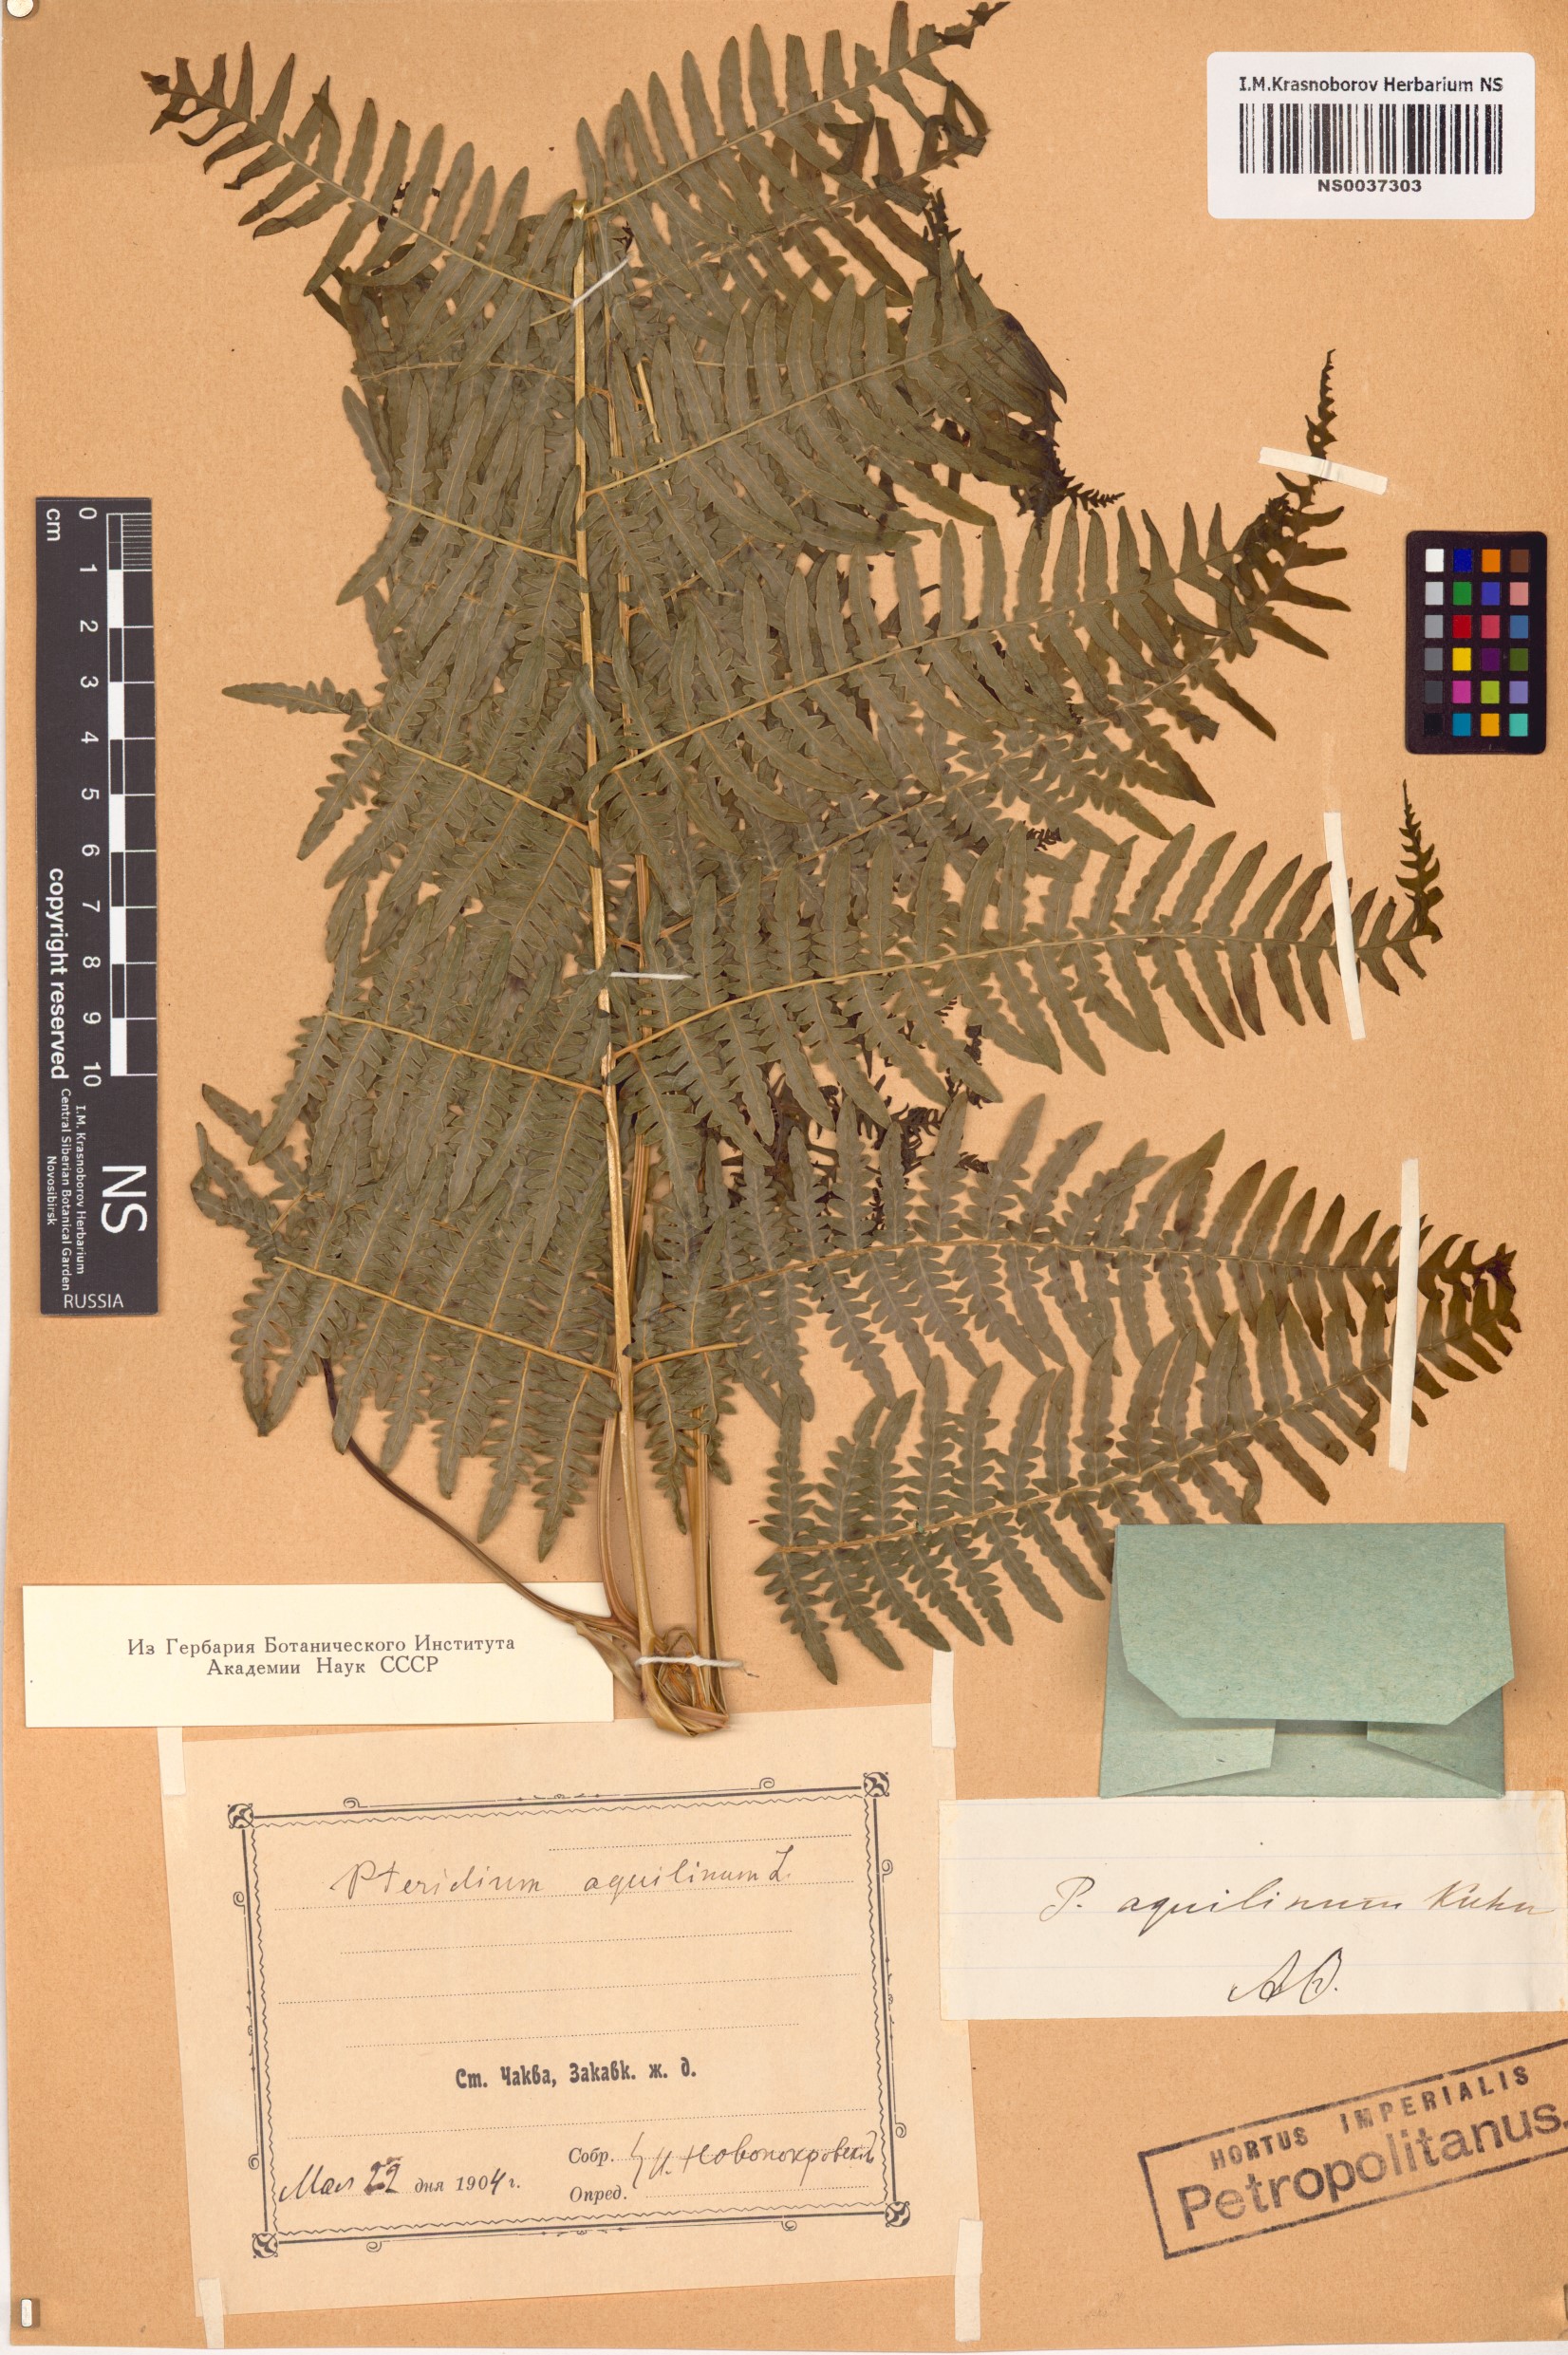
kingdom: Plantae
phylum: Tracheophyta
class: Polypodiopsida
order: Polypodiales
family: Dennstaedtiaceae
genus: Pteridium
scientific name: Pteridium aquilinum
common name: Bracken
